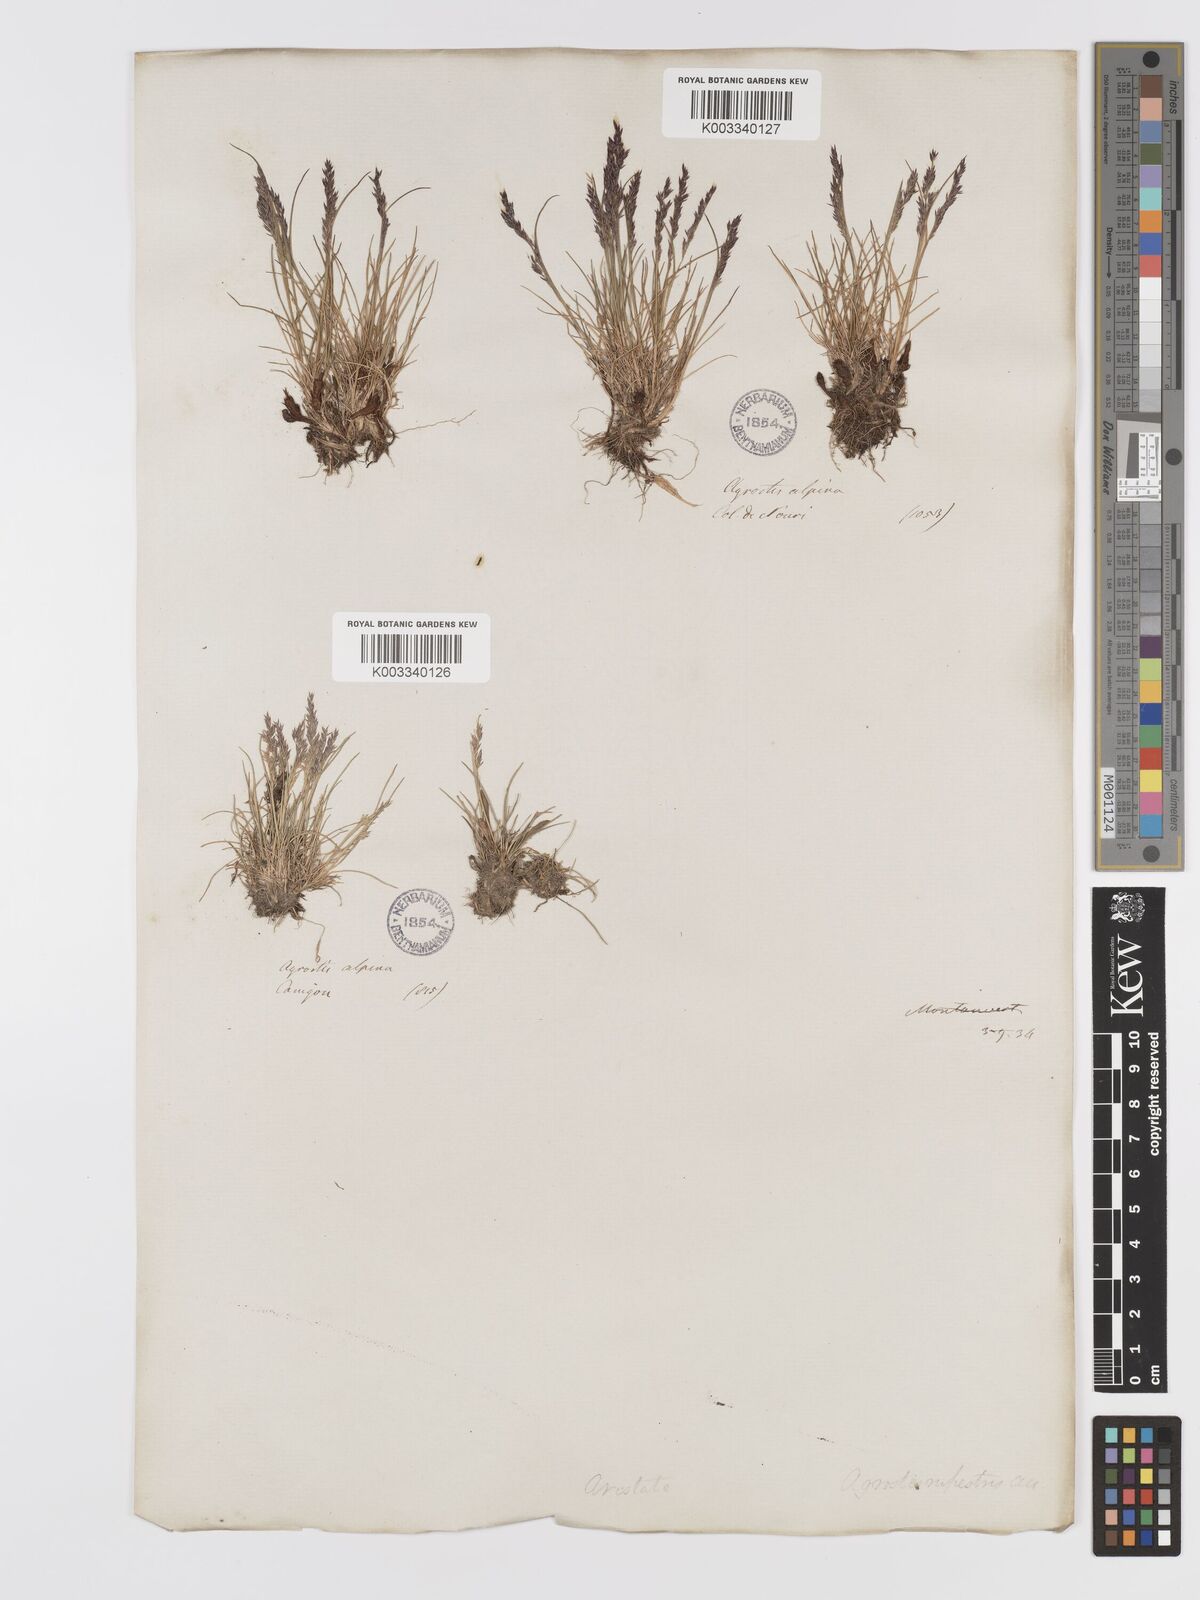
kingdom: Plantae
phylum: Tracheophyta
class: Liliopsida
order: Poales
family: Poaceae
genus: Agrostis
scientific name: Agrostis rupestris
